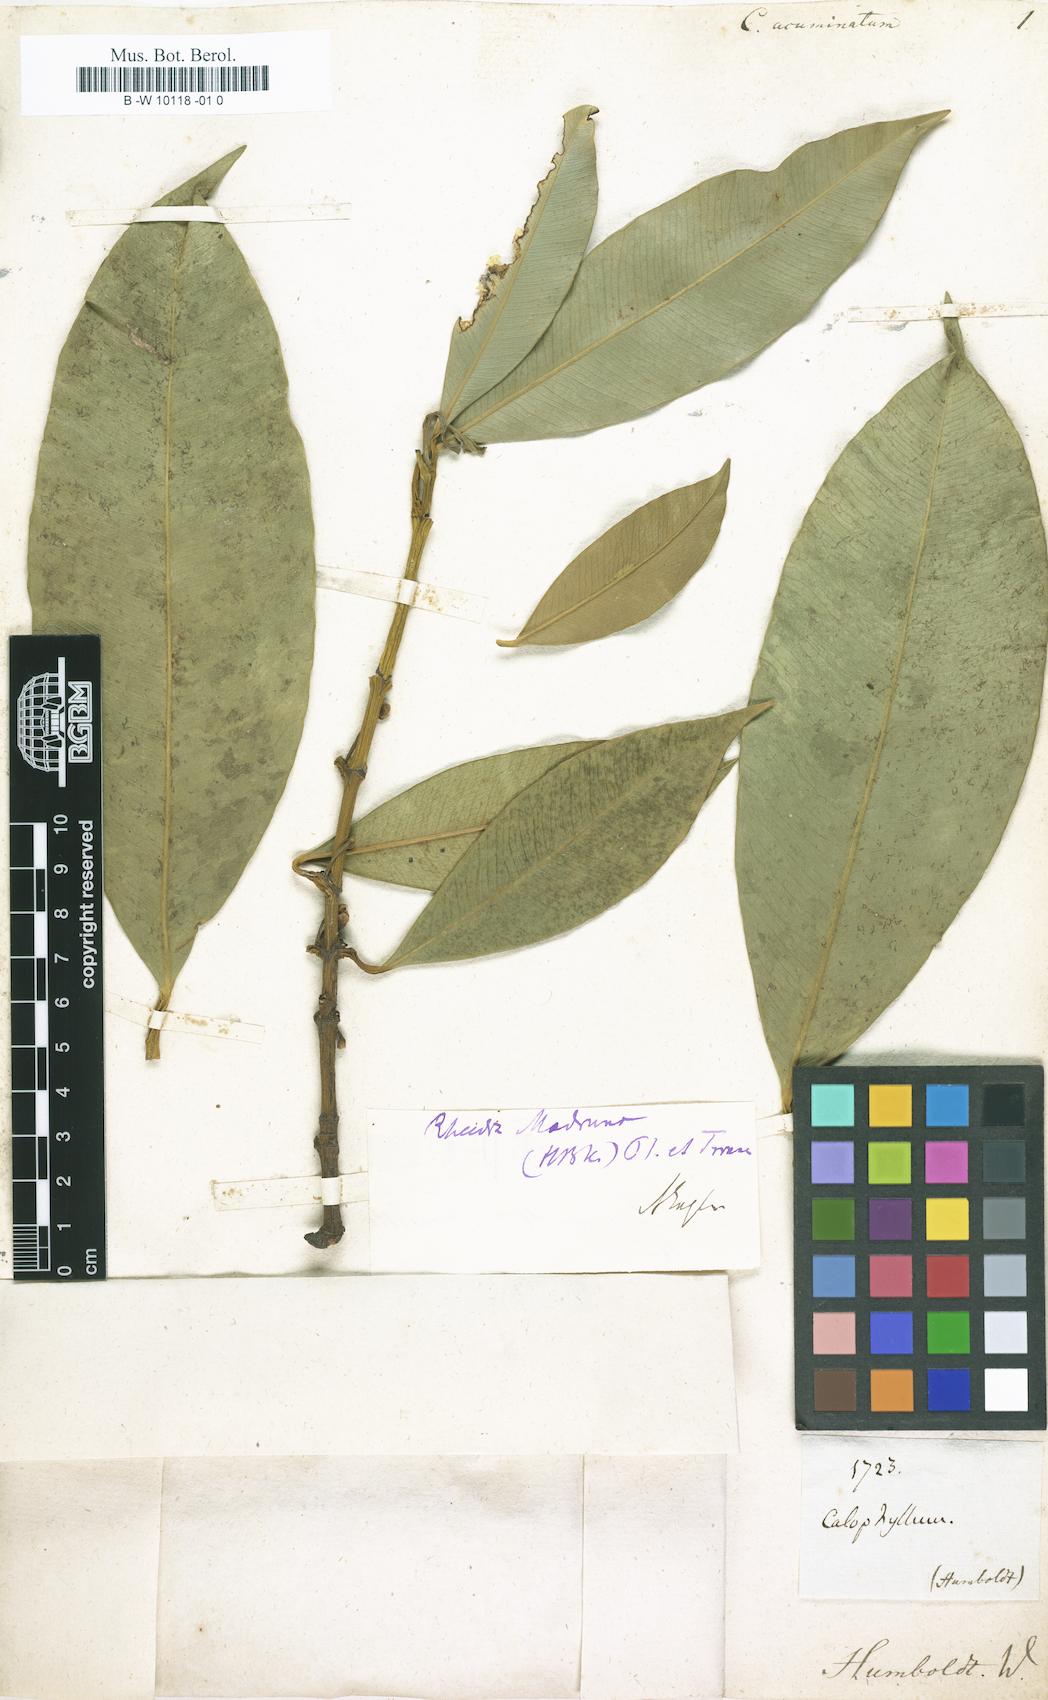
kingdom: Plantae
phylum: Tracheophyta
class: Magnoliopsida
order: Malpighiales
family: Clusiaceae
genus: Garcinia
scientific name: Garcinia madruno
